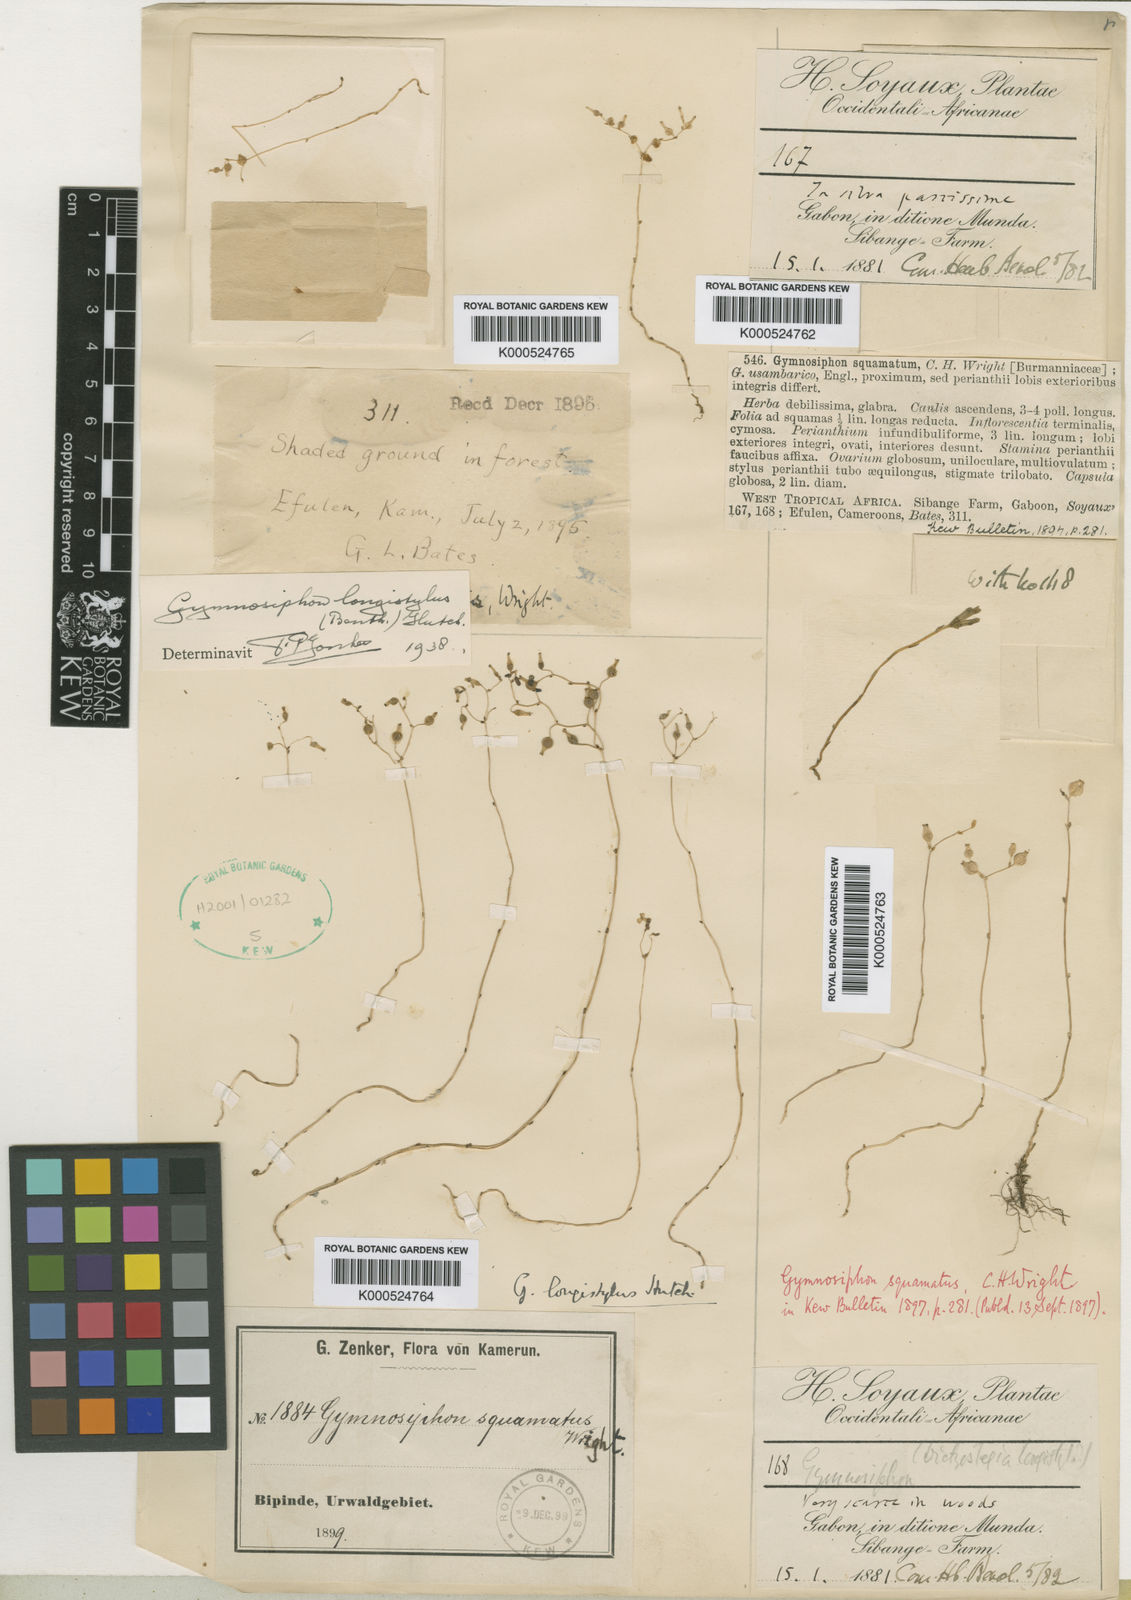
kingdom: Plantae
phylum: Tracheophyta
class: Liliopsida
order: Dioscoreales
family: Burmanniaceae
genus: Gymnosiphon
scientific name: Gymnosiphon longistylus
